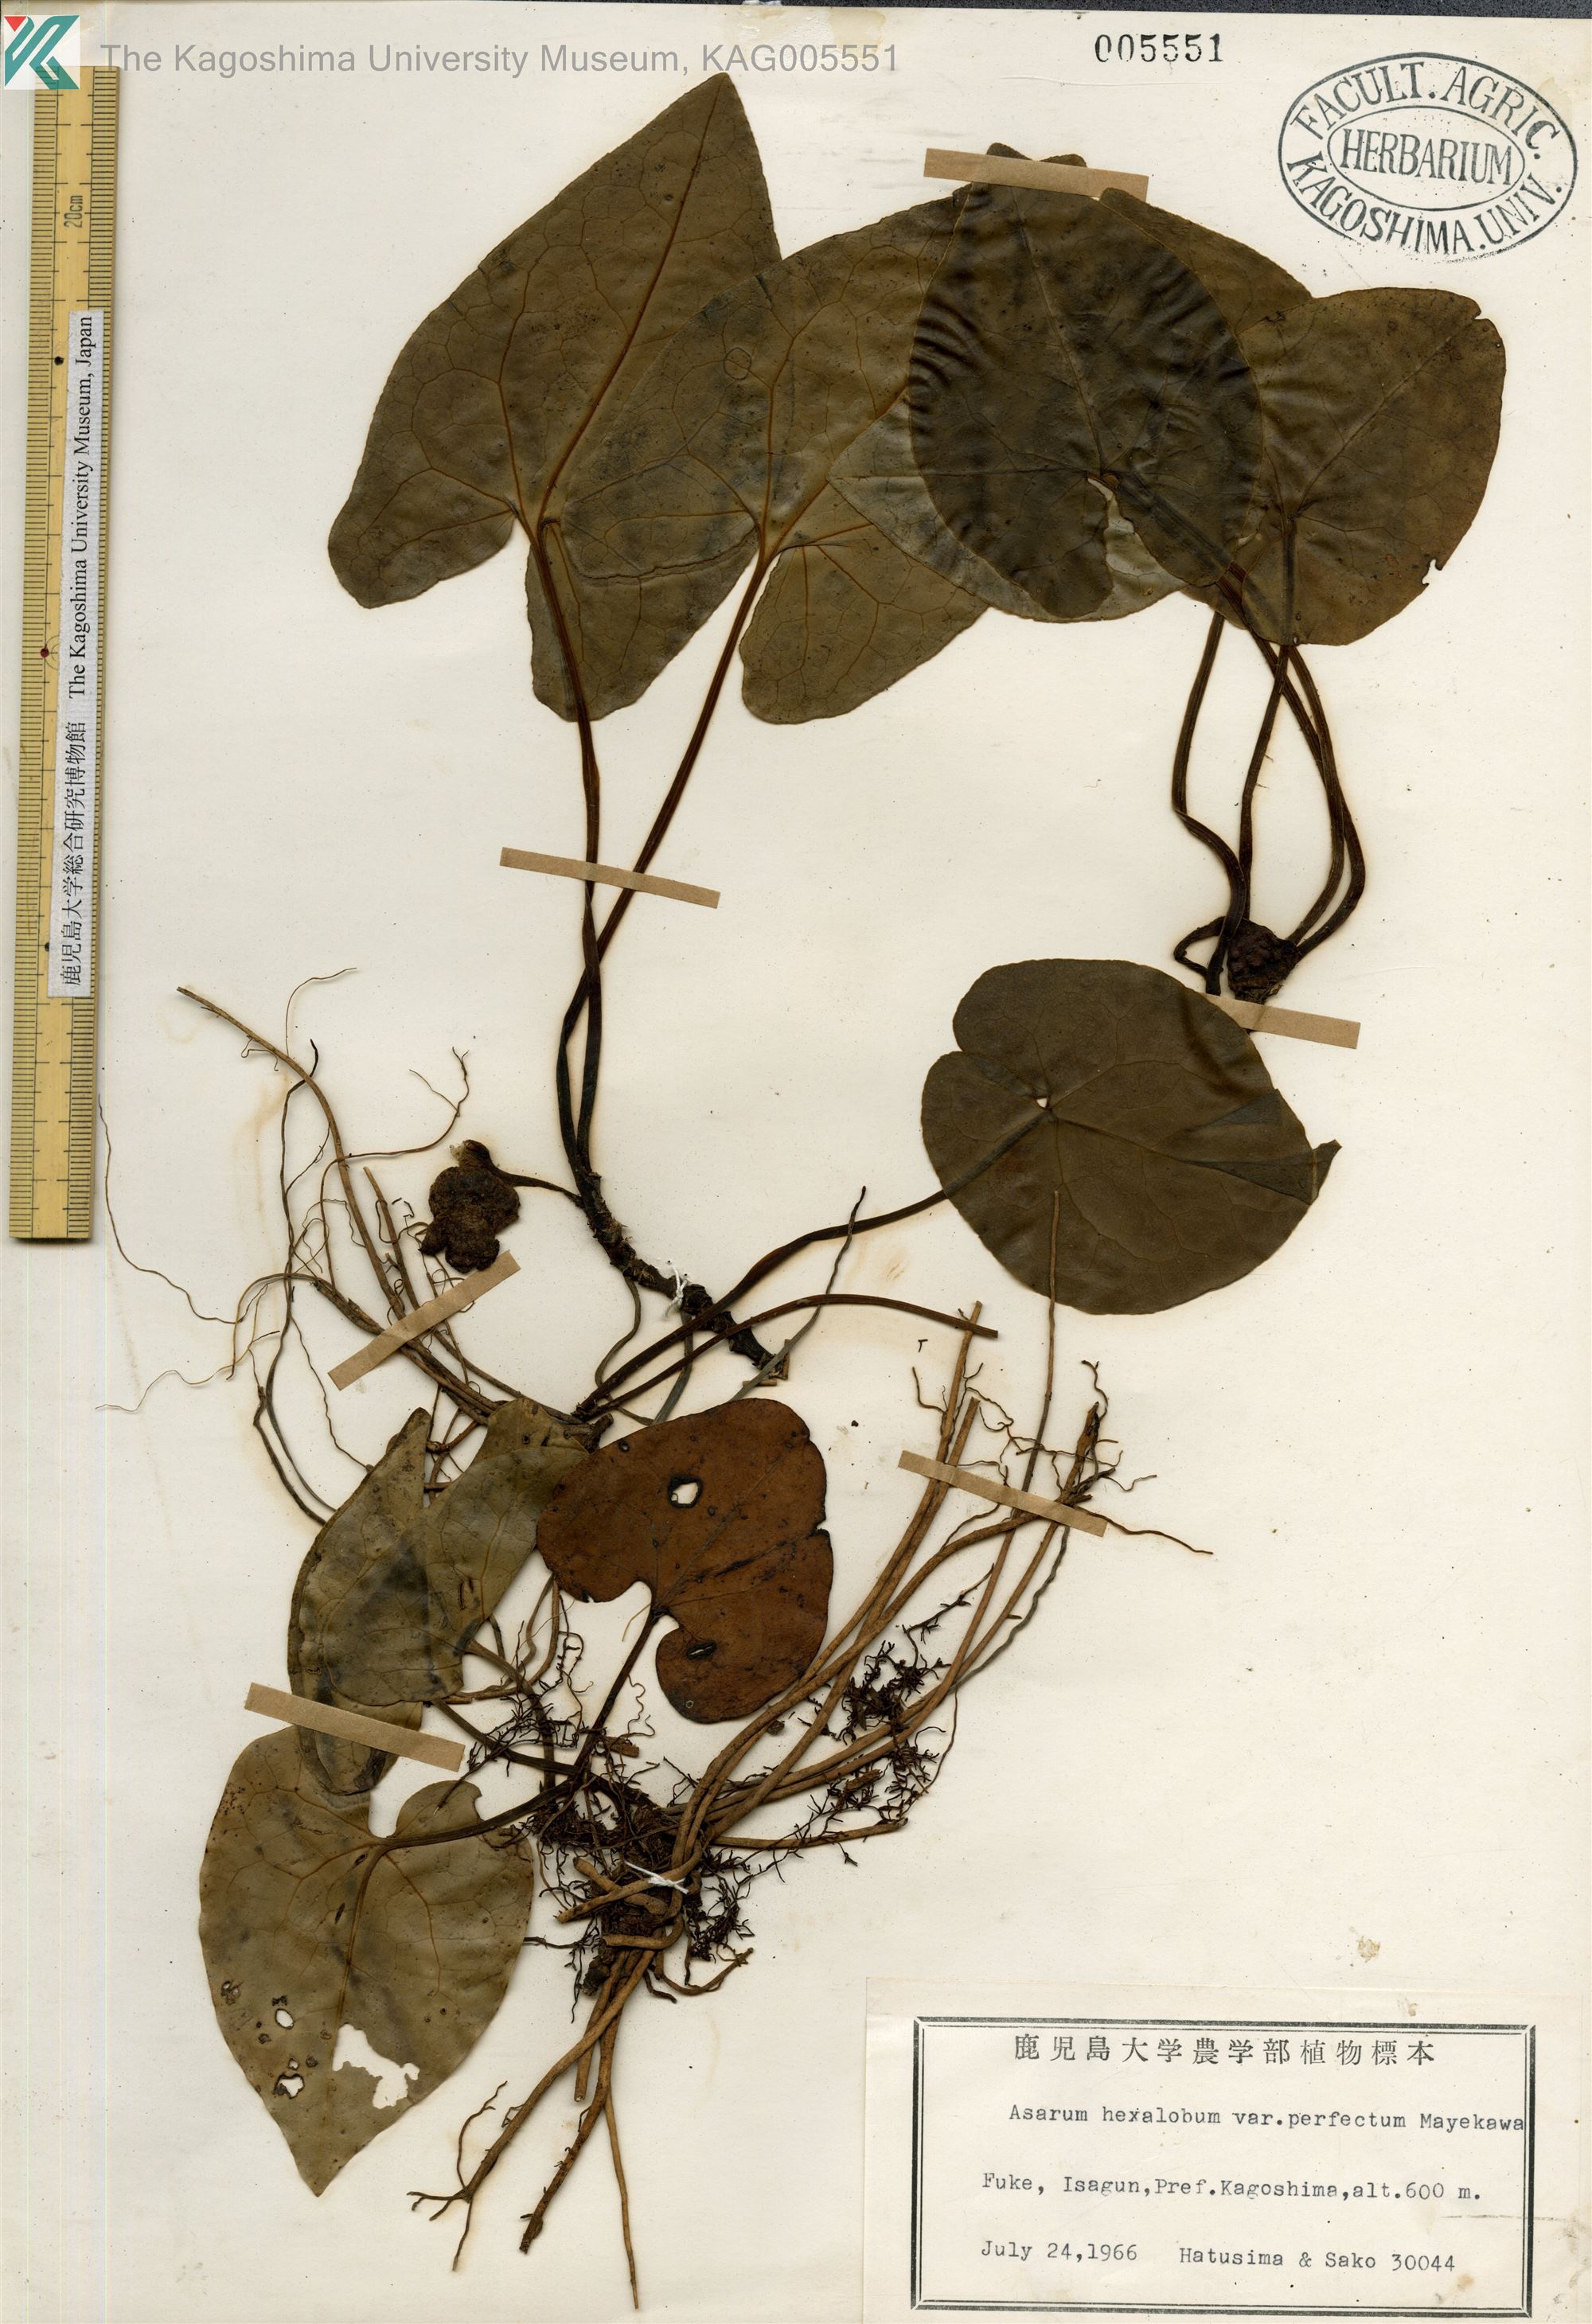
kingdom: Plantae
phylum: Tracheophyta
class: Magnoliopsida
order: Piperales
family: Aristolochiaceae
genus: Asarum
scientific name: Asarum hexalobum
